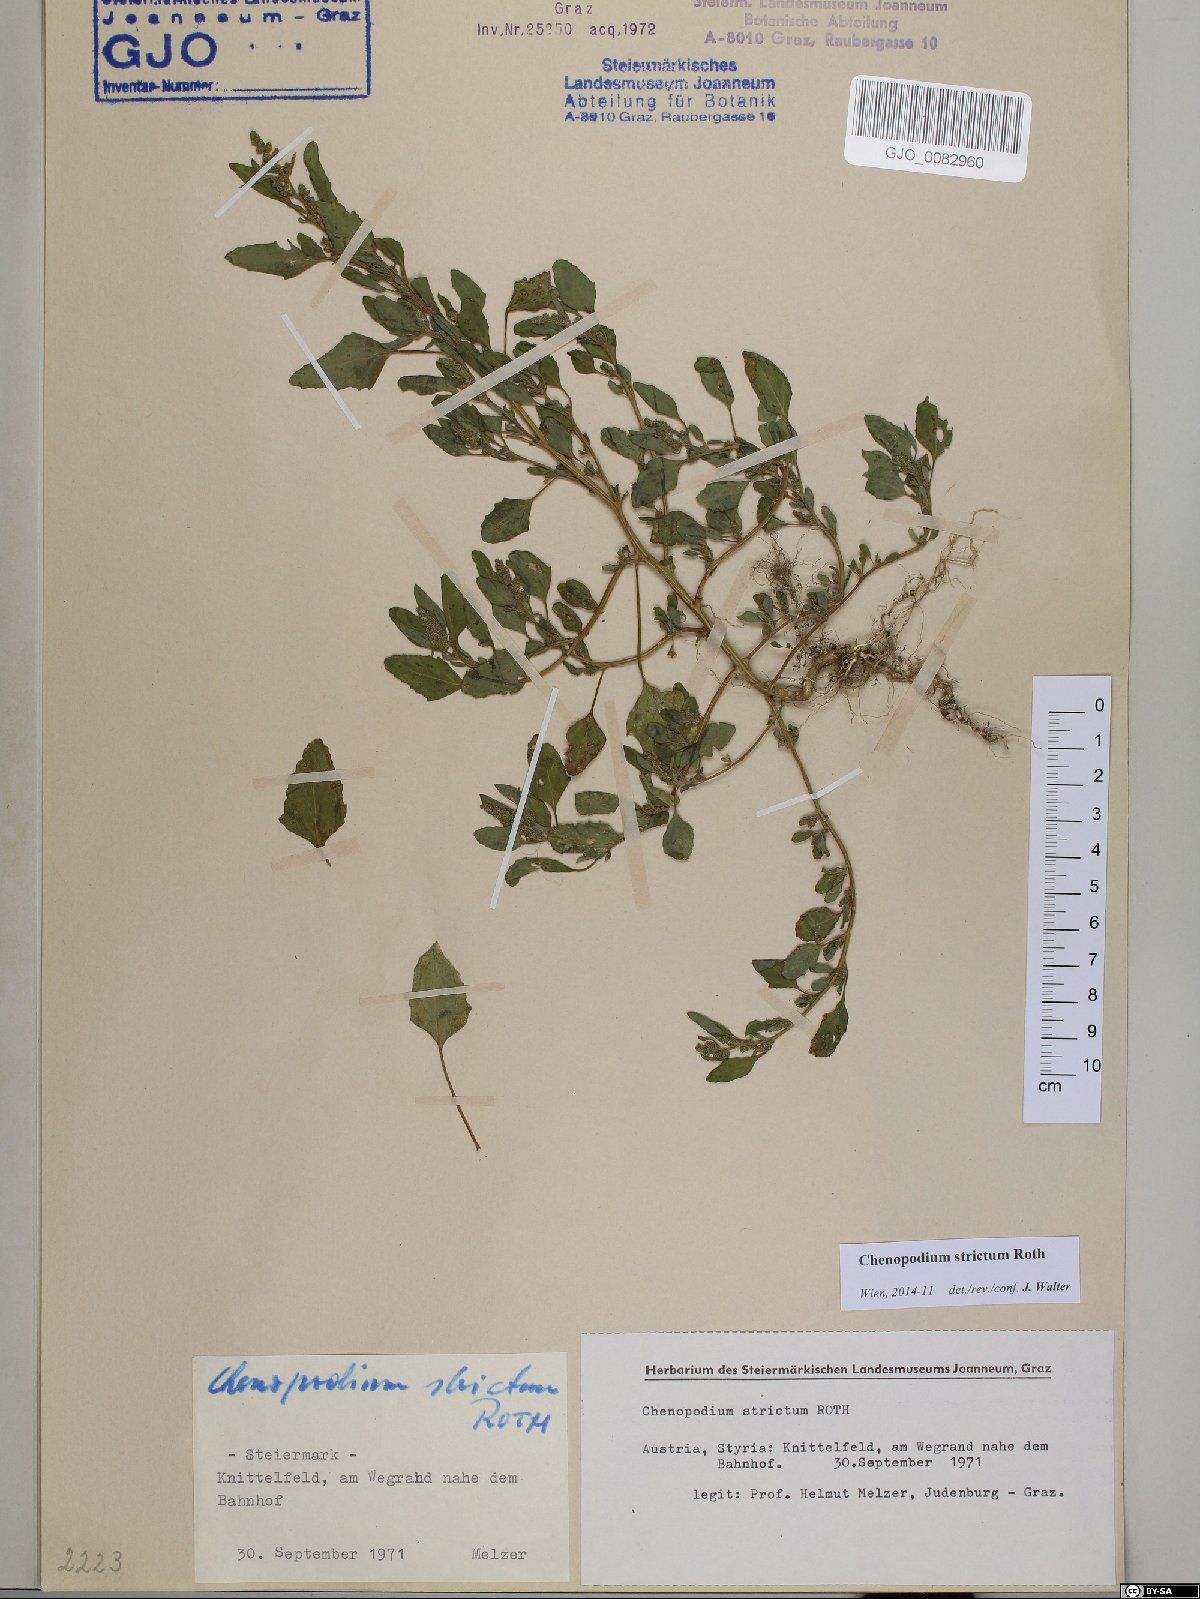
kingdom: Plantae
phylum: Tracheophyta
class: Magnoliopsida
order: Caryophyllales
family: Amaranthaceae
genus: Chenopodium
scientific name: Chenopodium album
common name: Fat-hen
